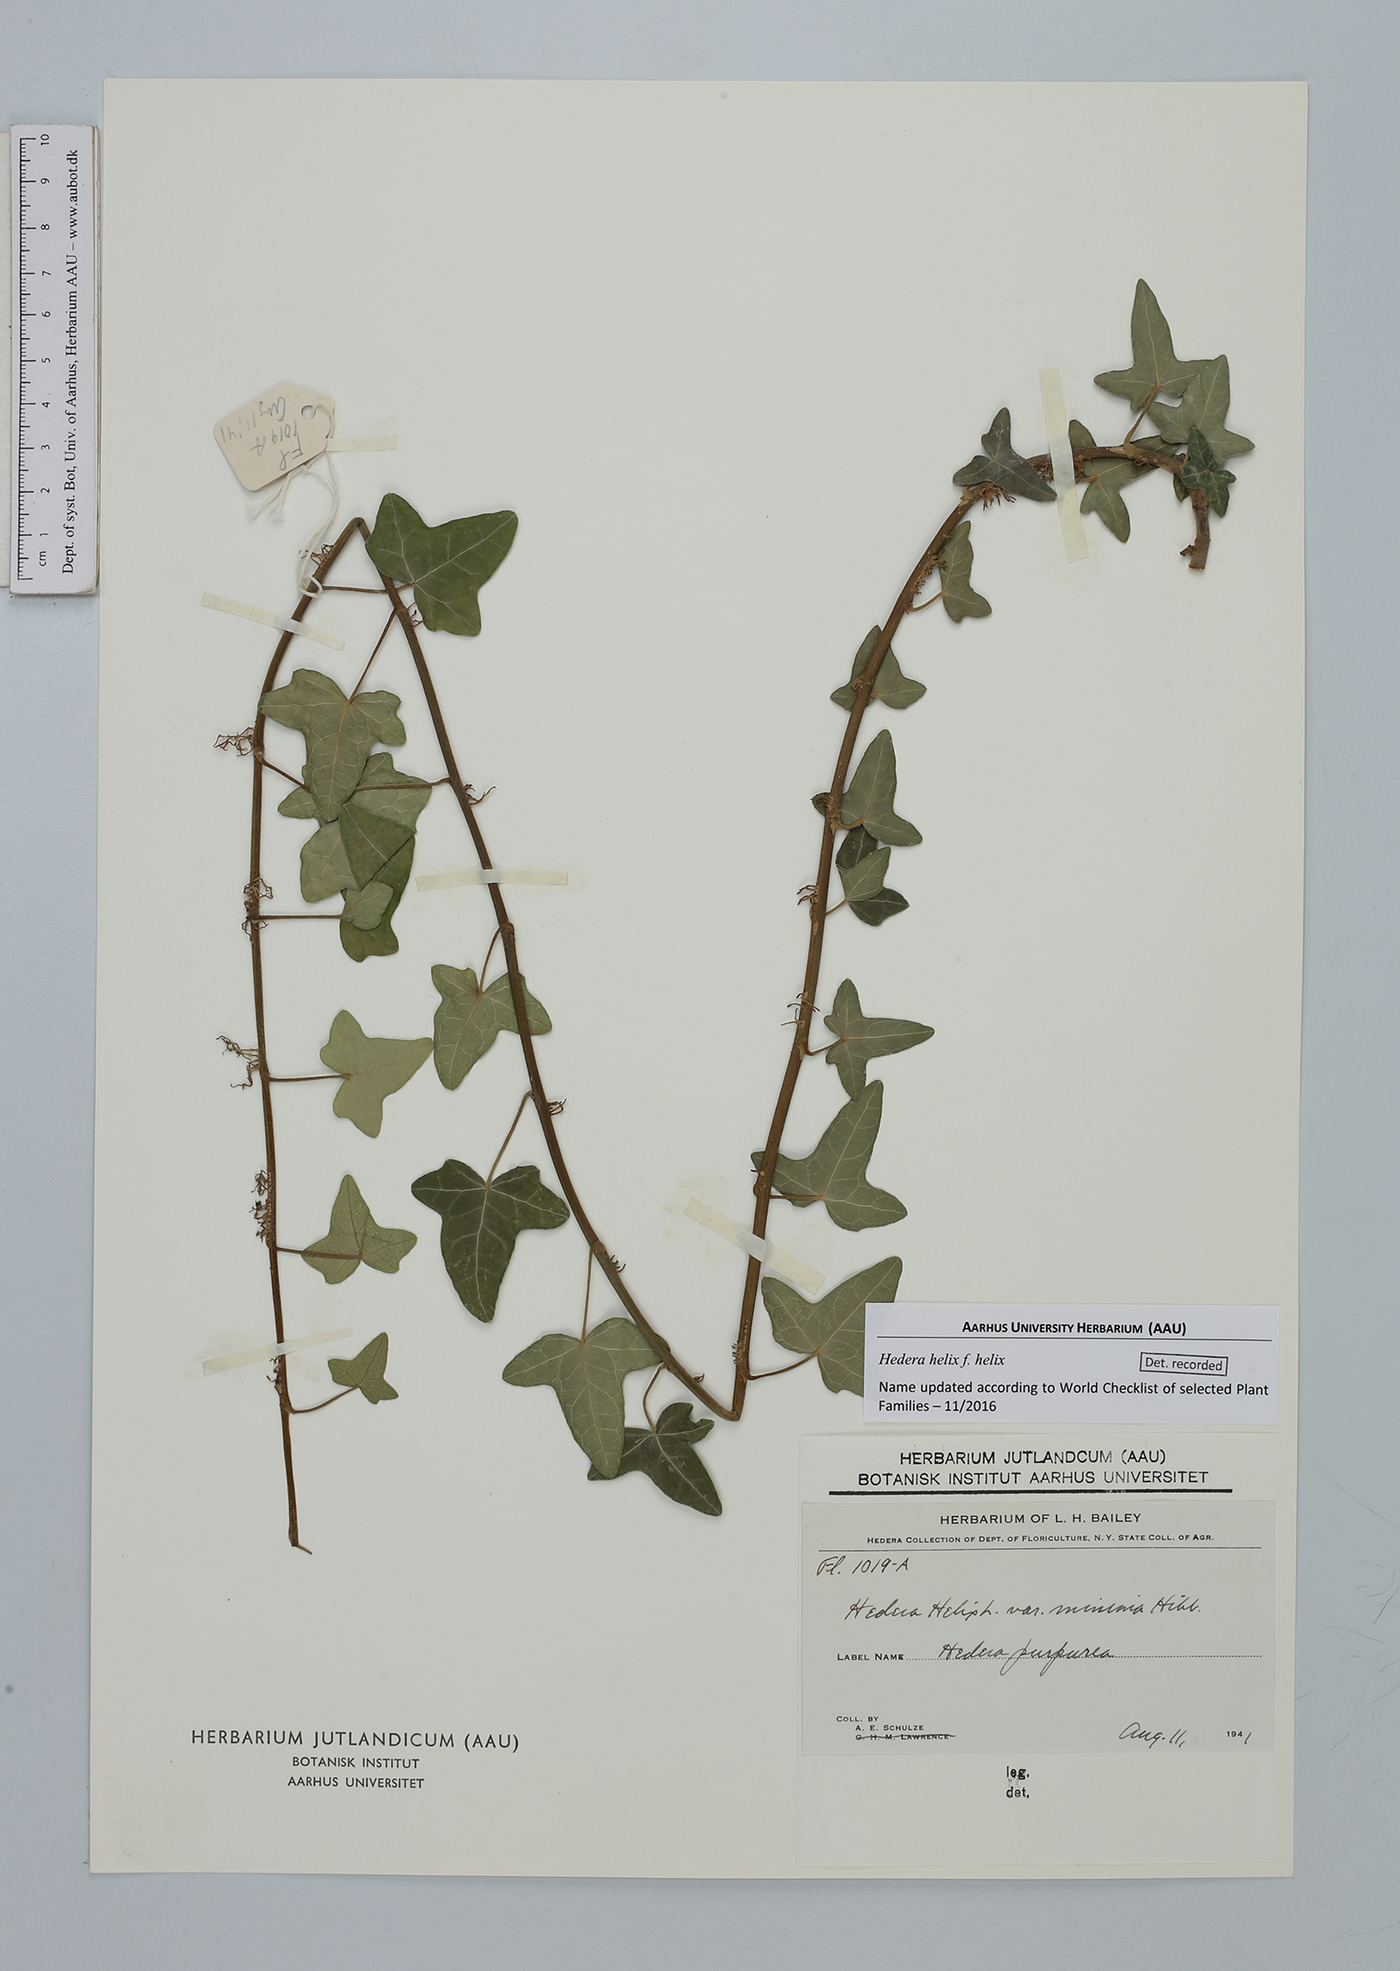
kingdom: Plantae
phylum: Tracheophyta
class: Magnoliopsida
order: Apiales
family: Araliaceae
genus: Hedera
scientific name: Hedera helix
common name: Ivy
